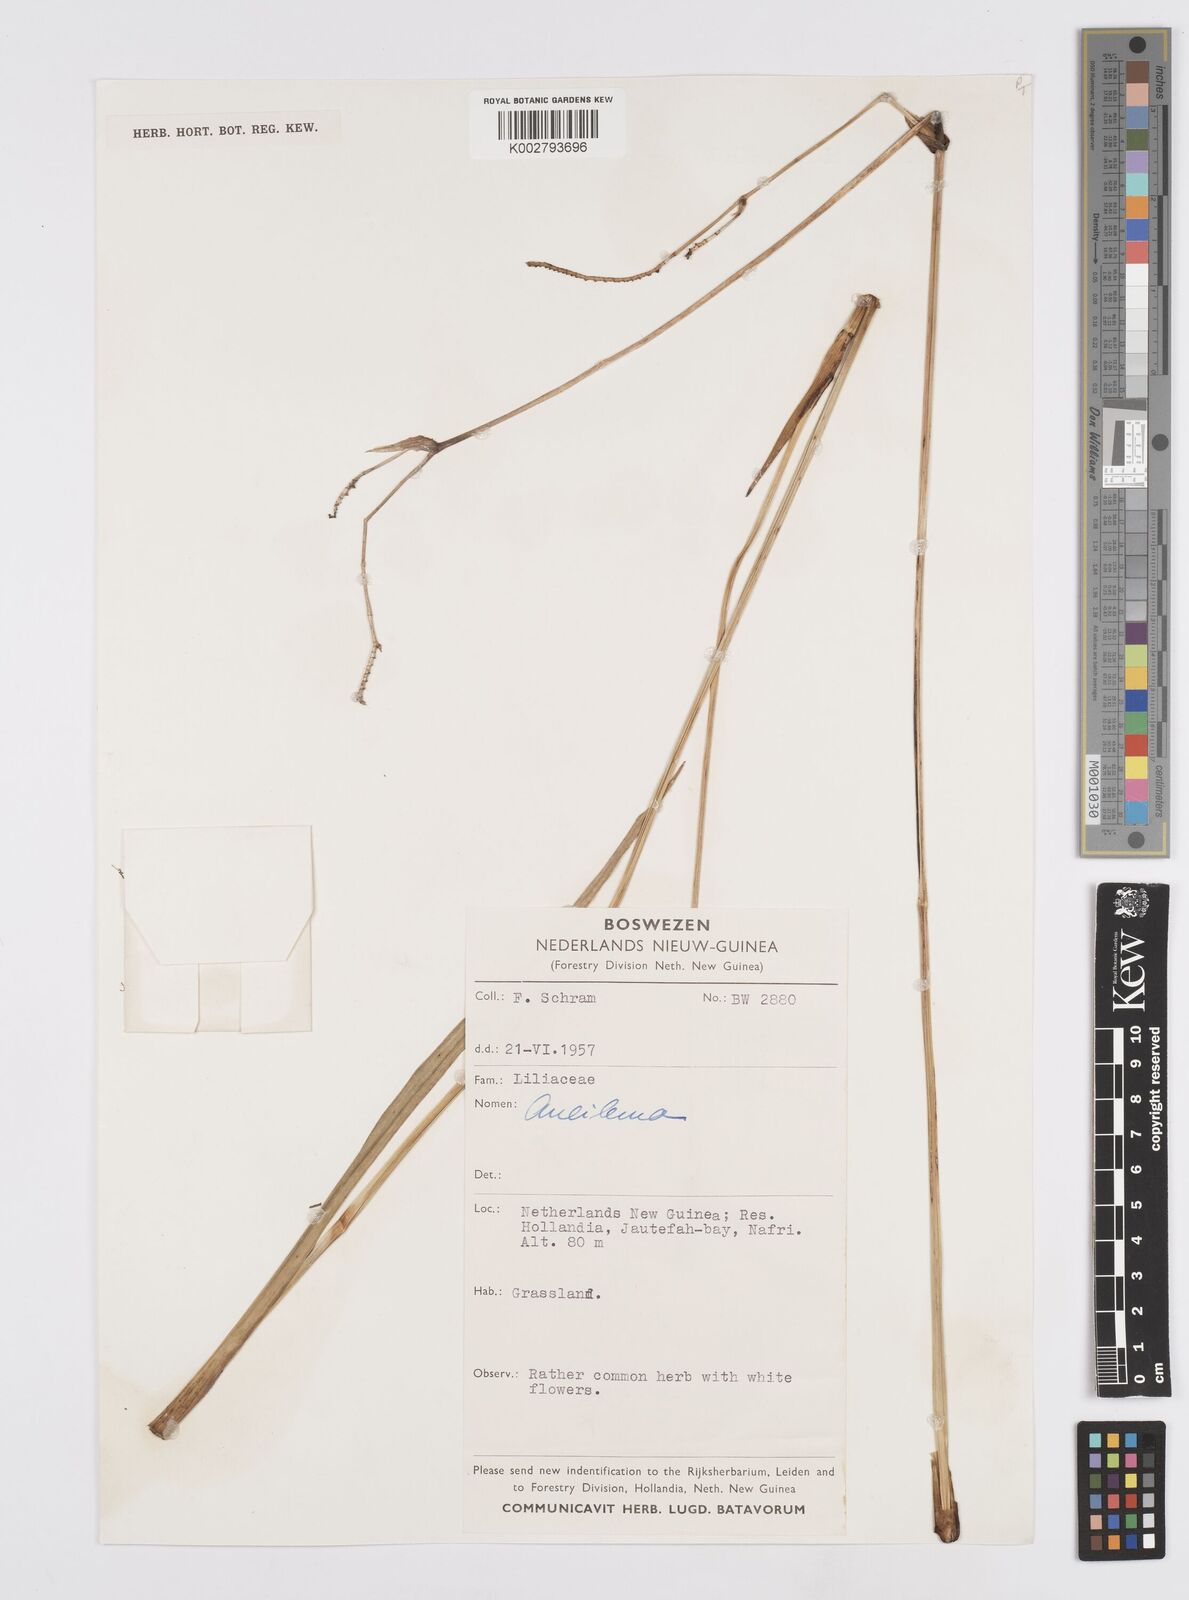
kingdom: Plantae
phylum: Tracheophyta
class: Liliopsida
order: Commelinales
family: Commelinaceae
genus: Murdannia
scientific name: Murdannia
